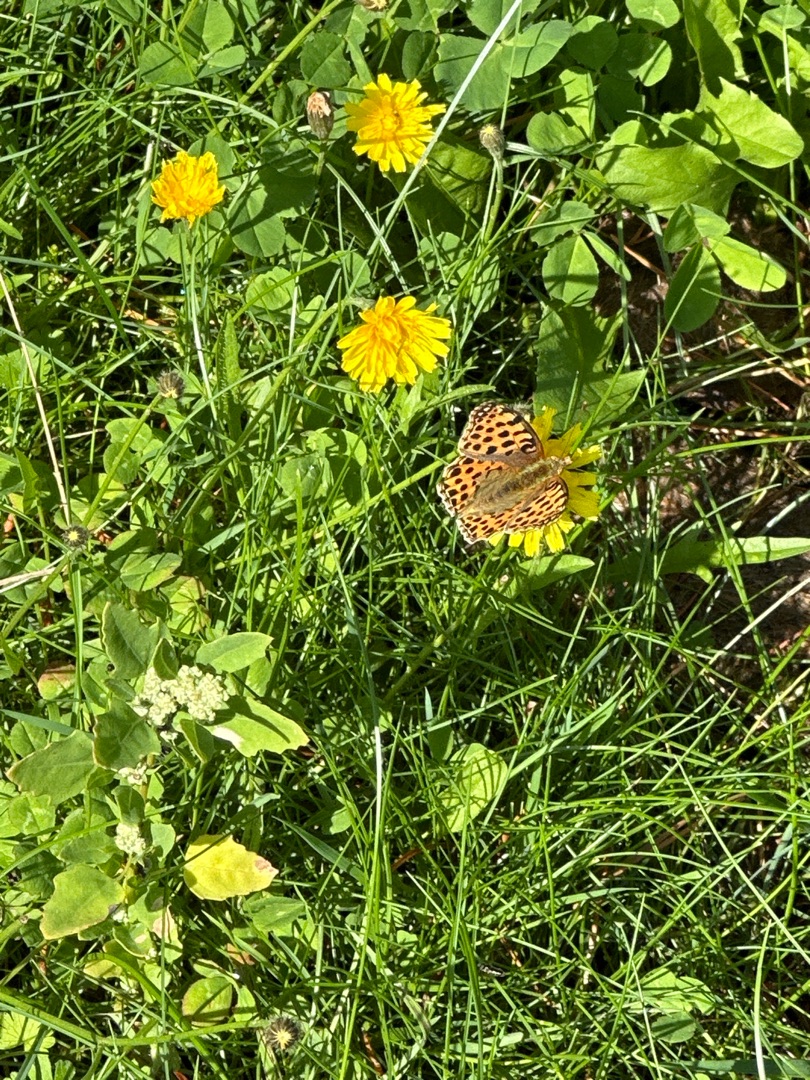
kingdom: Animalia
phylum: Arthropoda
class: Insecta
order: Lepidoptera
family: Nymphalidae
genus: Issoria
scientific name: Issoria lathonia
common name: Storplettet perlemorsommerfugl
